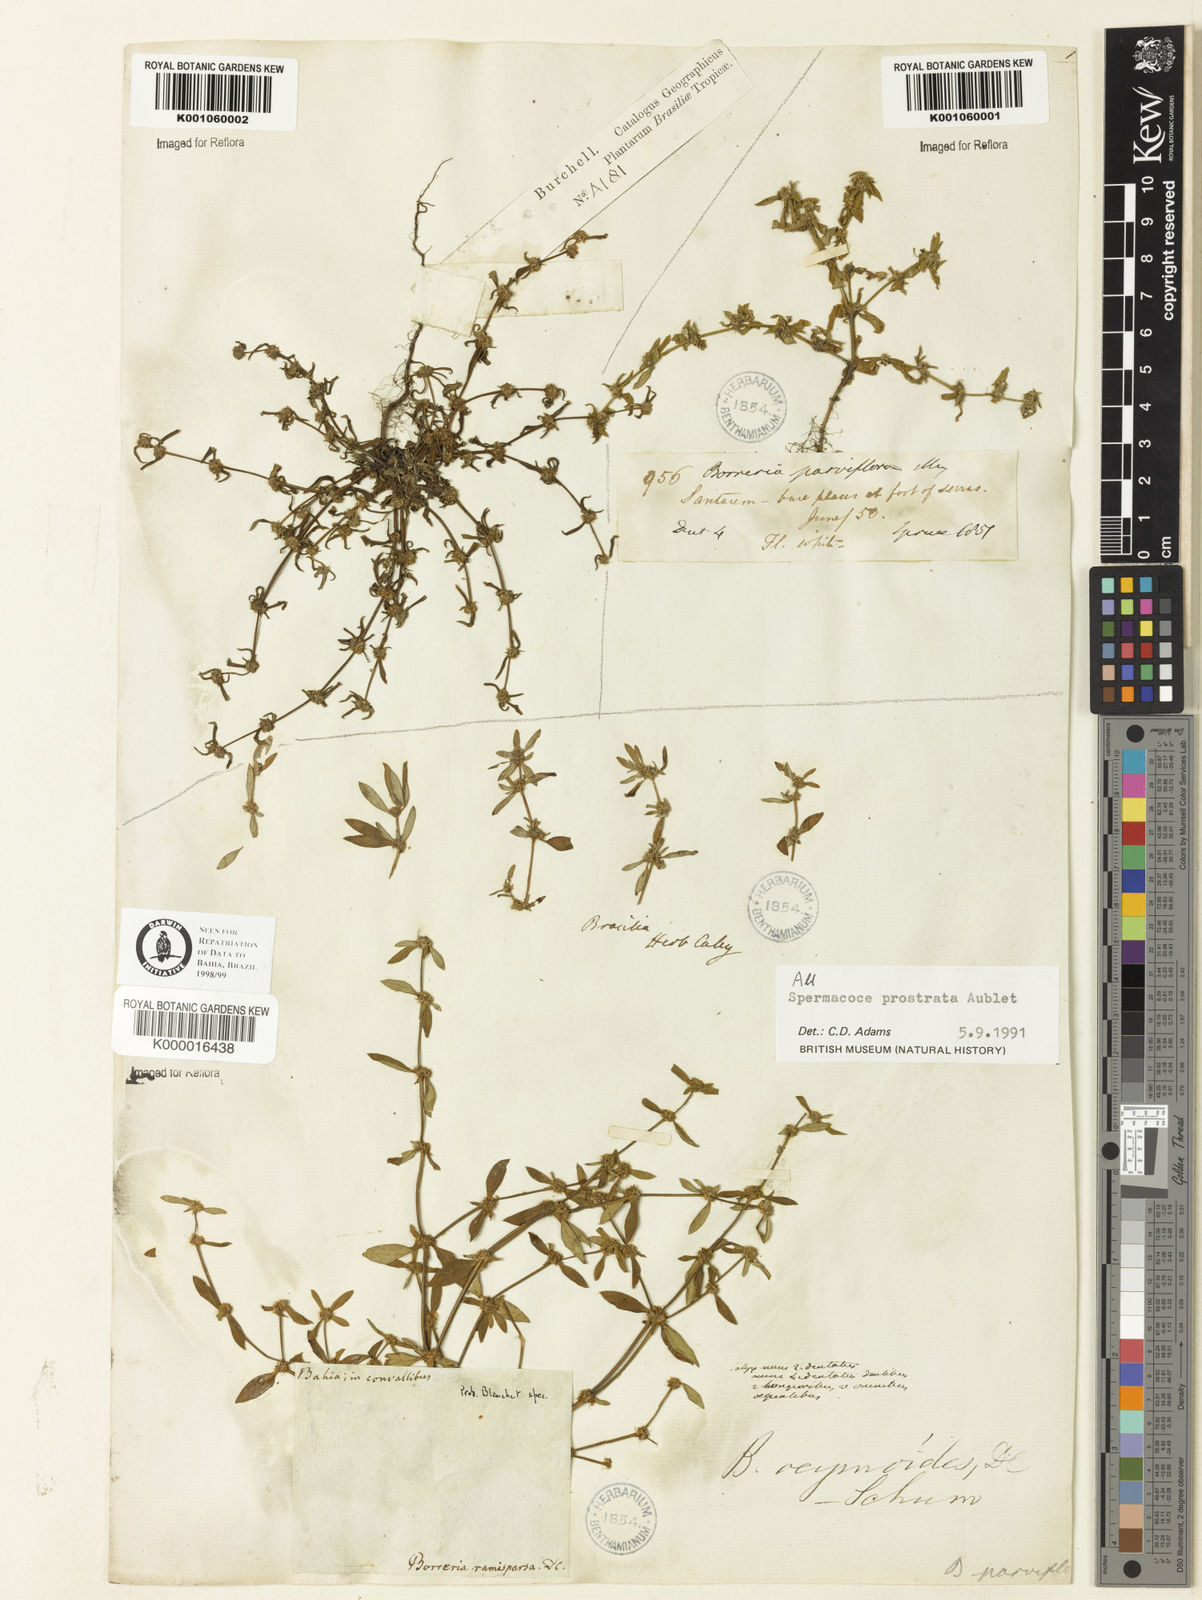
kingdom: Plantae
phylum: Tracheophyta
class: Magnoliopsida
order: Gentianales
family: Rubiaceae
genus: Spermacoce
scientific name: Spermacoce prostrata
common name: Prostrate false buttonweed
